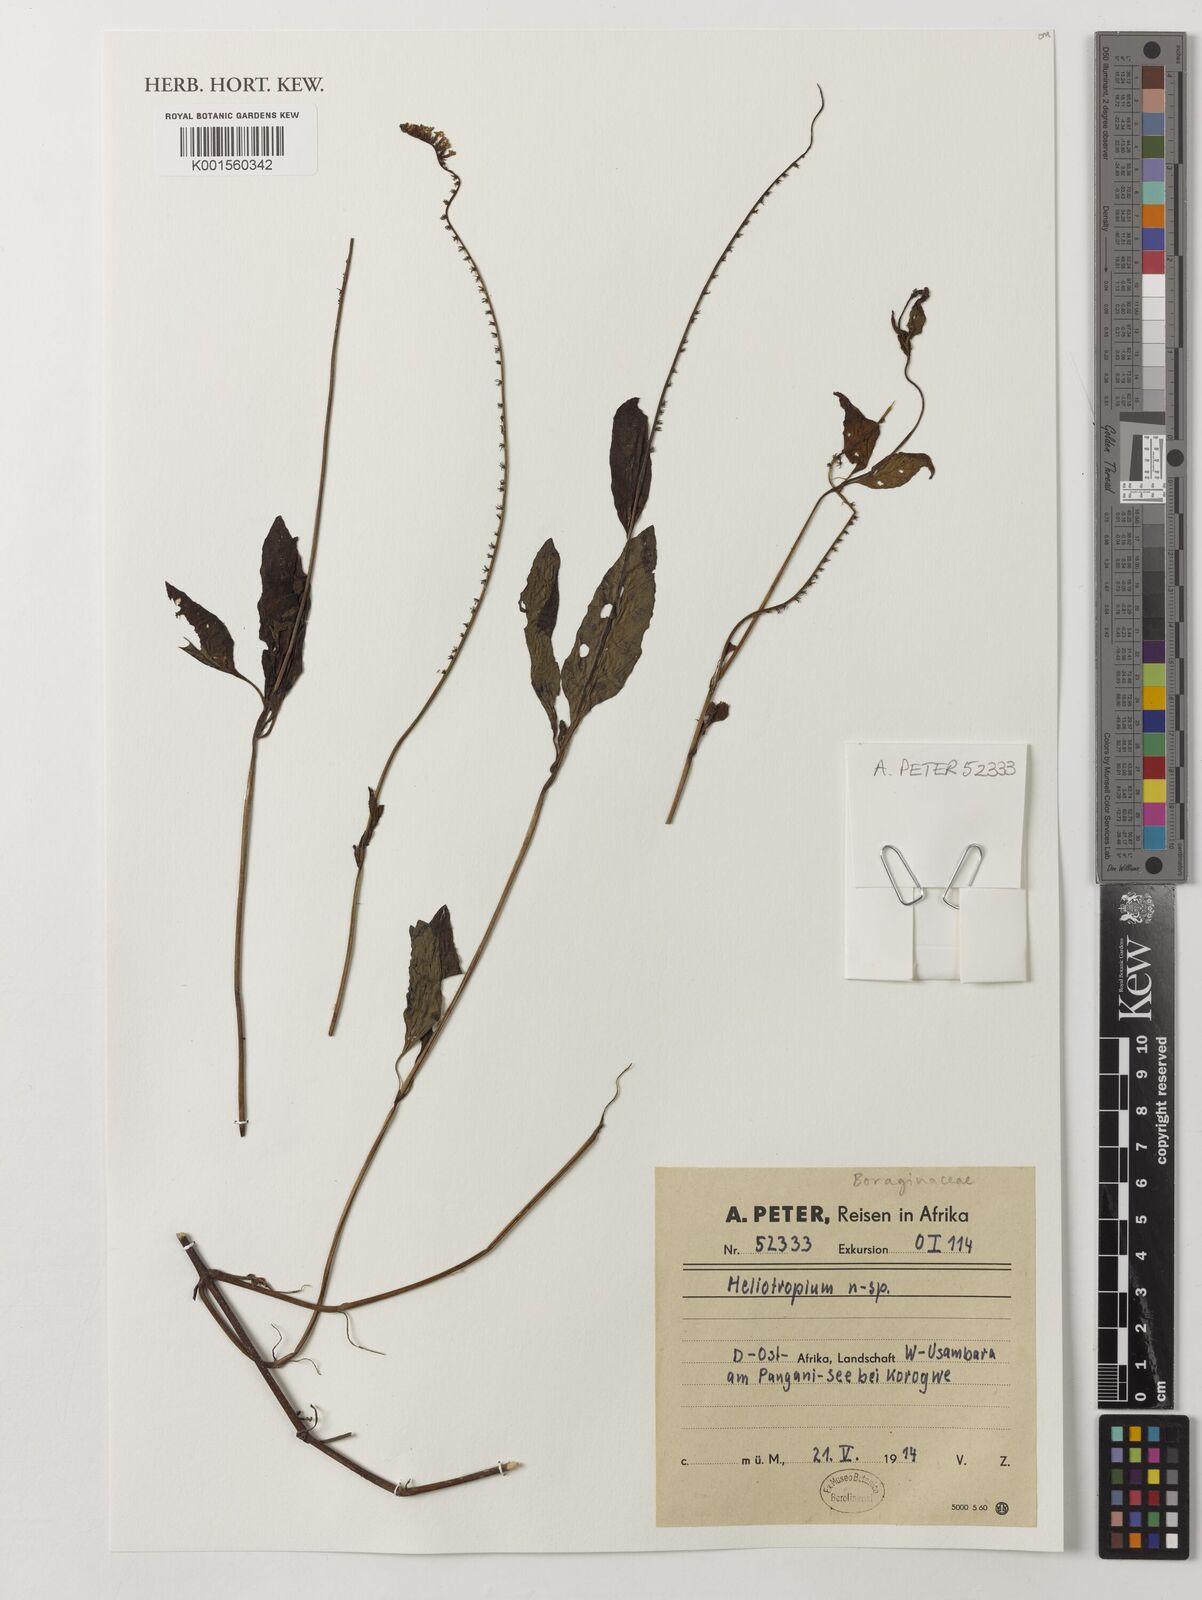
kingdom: Plantae
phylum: Tracheophyta
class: Magnoliopsida
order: Boraginales
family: Heliotropiaceae
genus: Heliotropium
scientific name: Heliotropium
